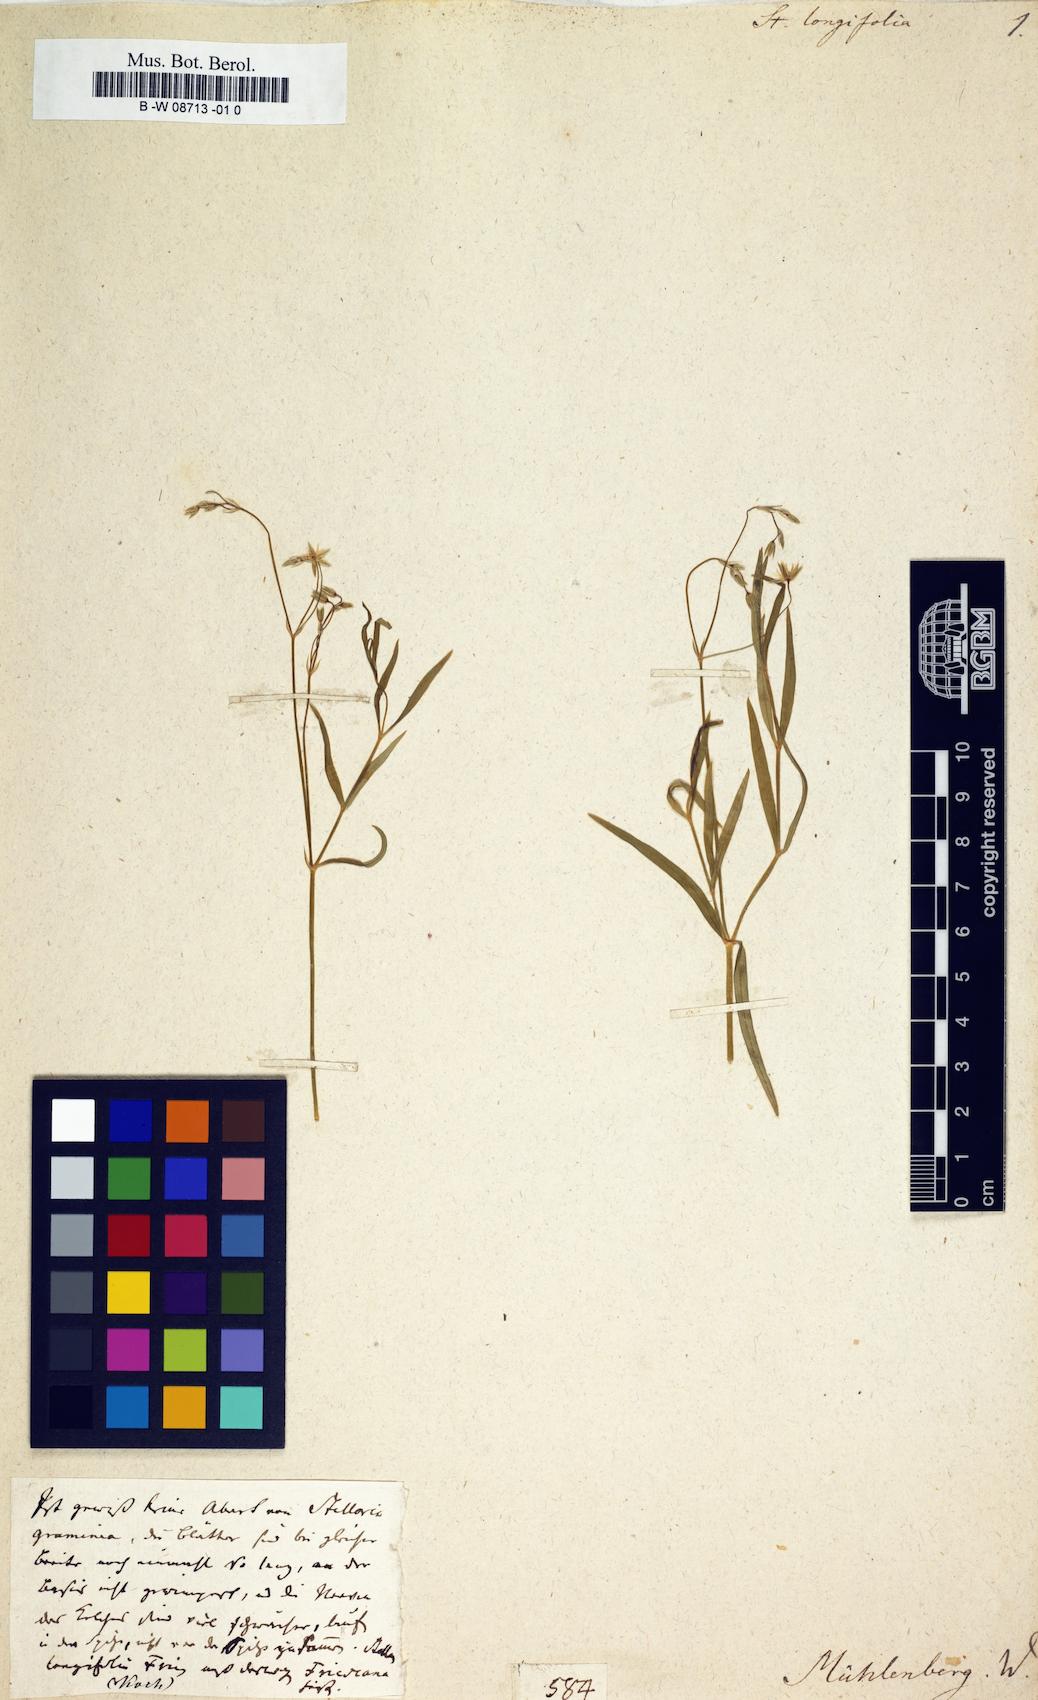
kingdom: Plantae
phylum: Tracheophyta
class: Magnoliopsida
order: Caryophyllales
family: Caryophyllaceae
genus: Stellaria
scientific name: Stellaria longifolia
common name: Long-leaved chickweed
